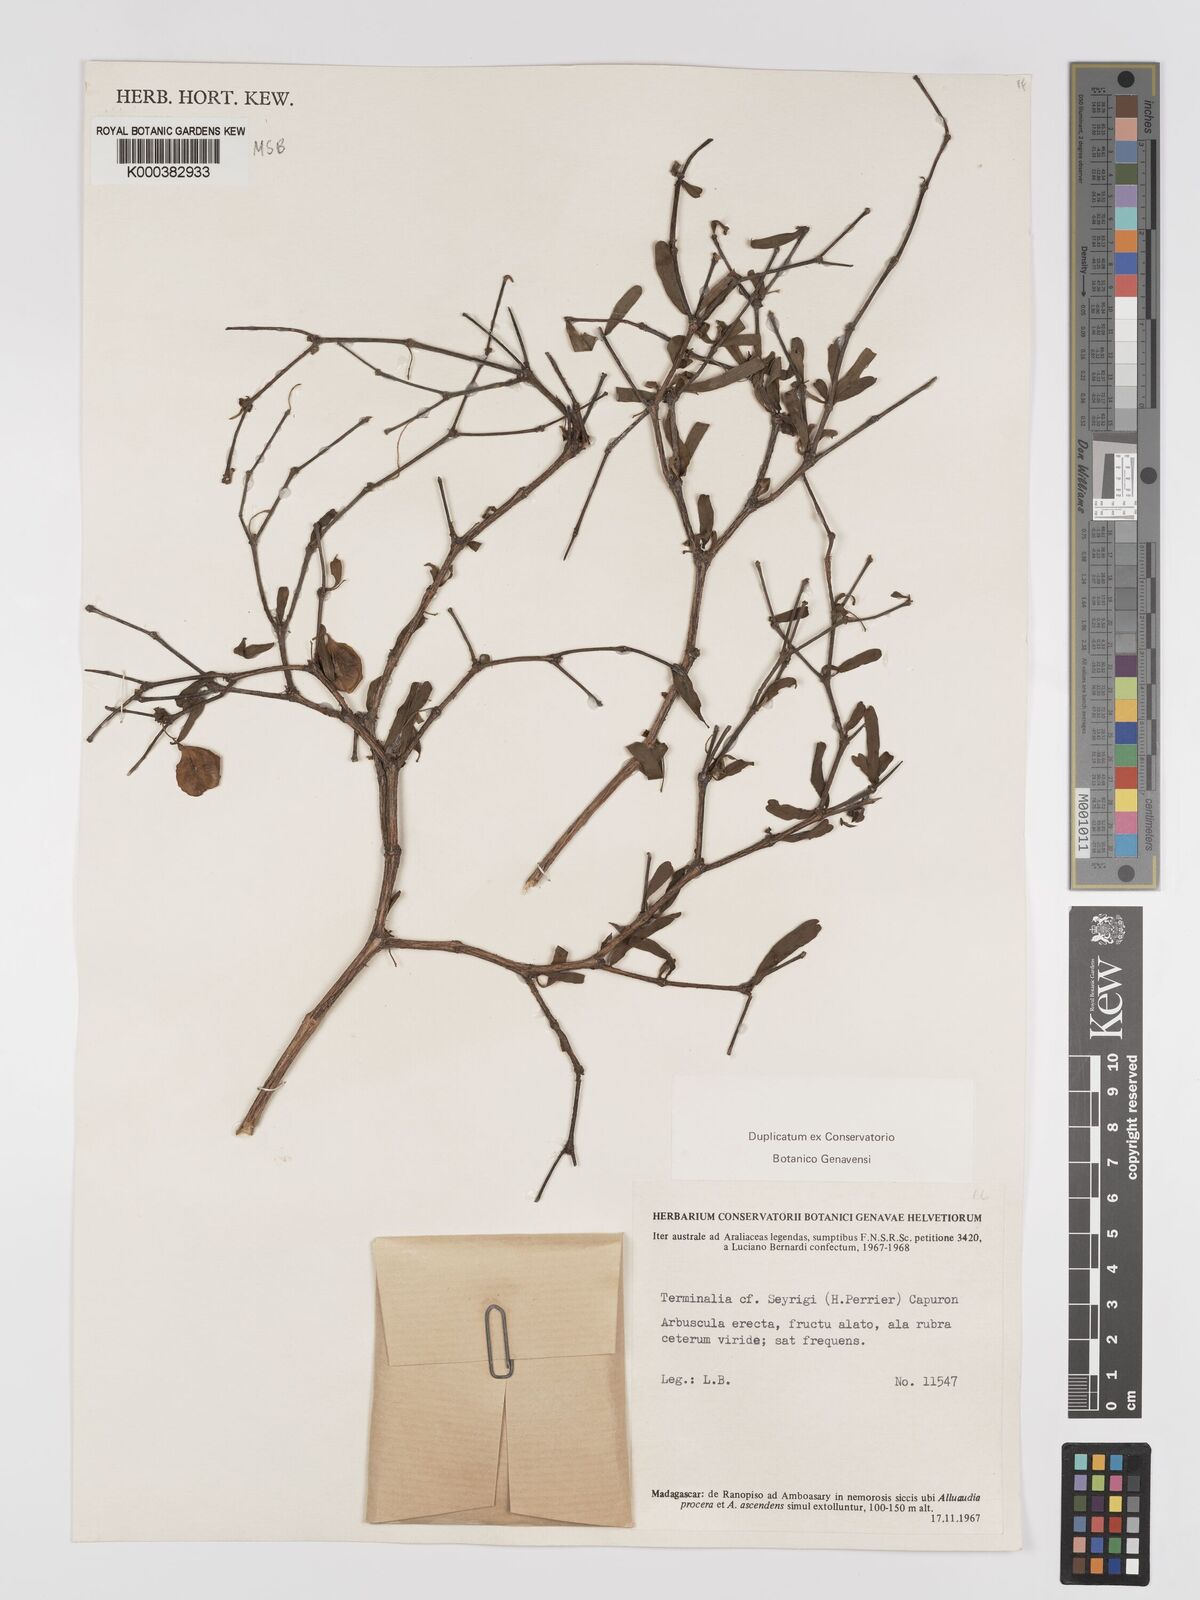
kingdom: Plantae
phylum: Tracheophyta
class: Magnoliopsida
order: Myrtales
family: Combretaceae
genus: Terminalia
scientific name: Terminalia seyrigii
